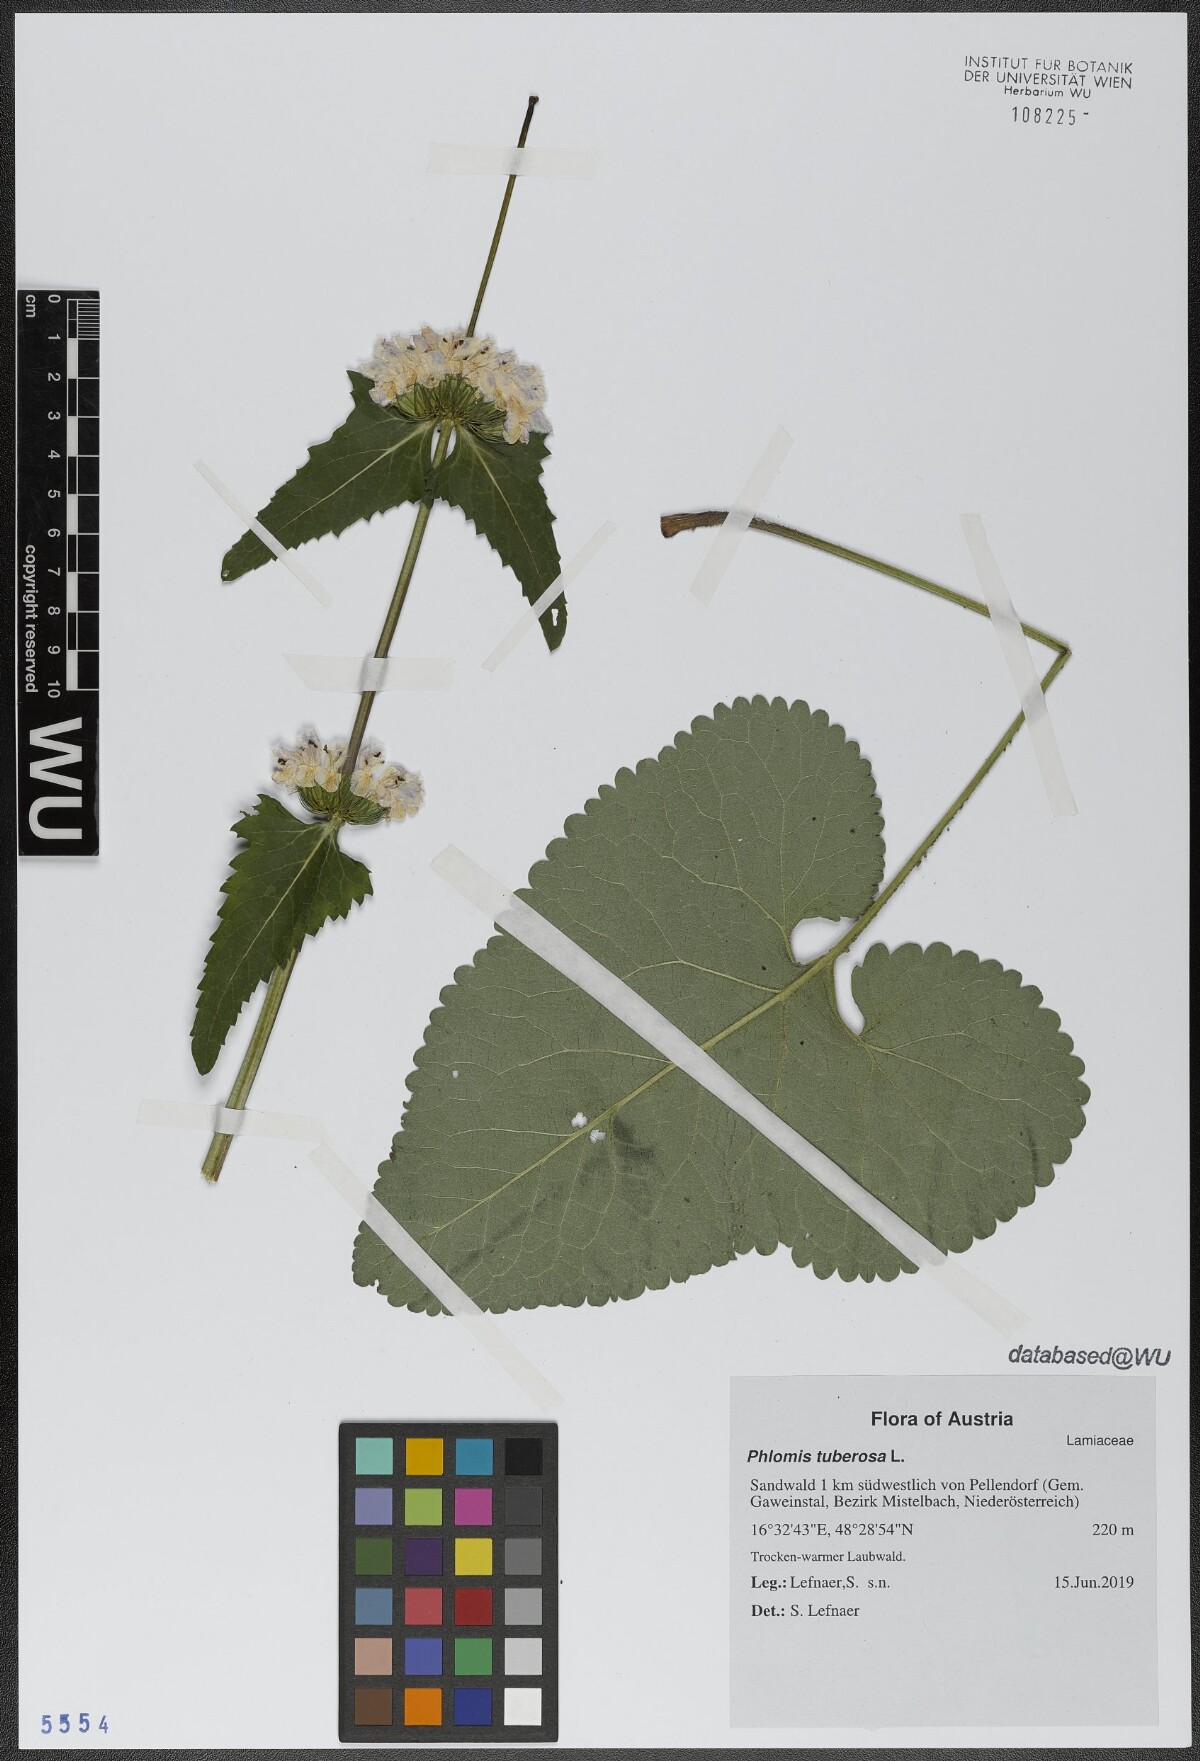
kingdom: Plantae
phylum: Tracheophyta
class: Magnoliopsida
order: Lamiales
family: Lamiaceae
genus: Phlomoides
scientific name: Phlomoides tuberosa
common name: Tuberous jerusalem sage
